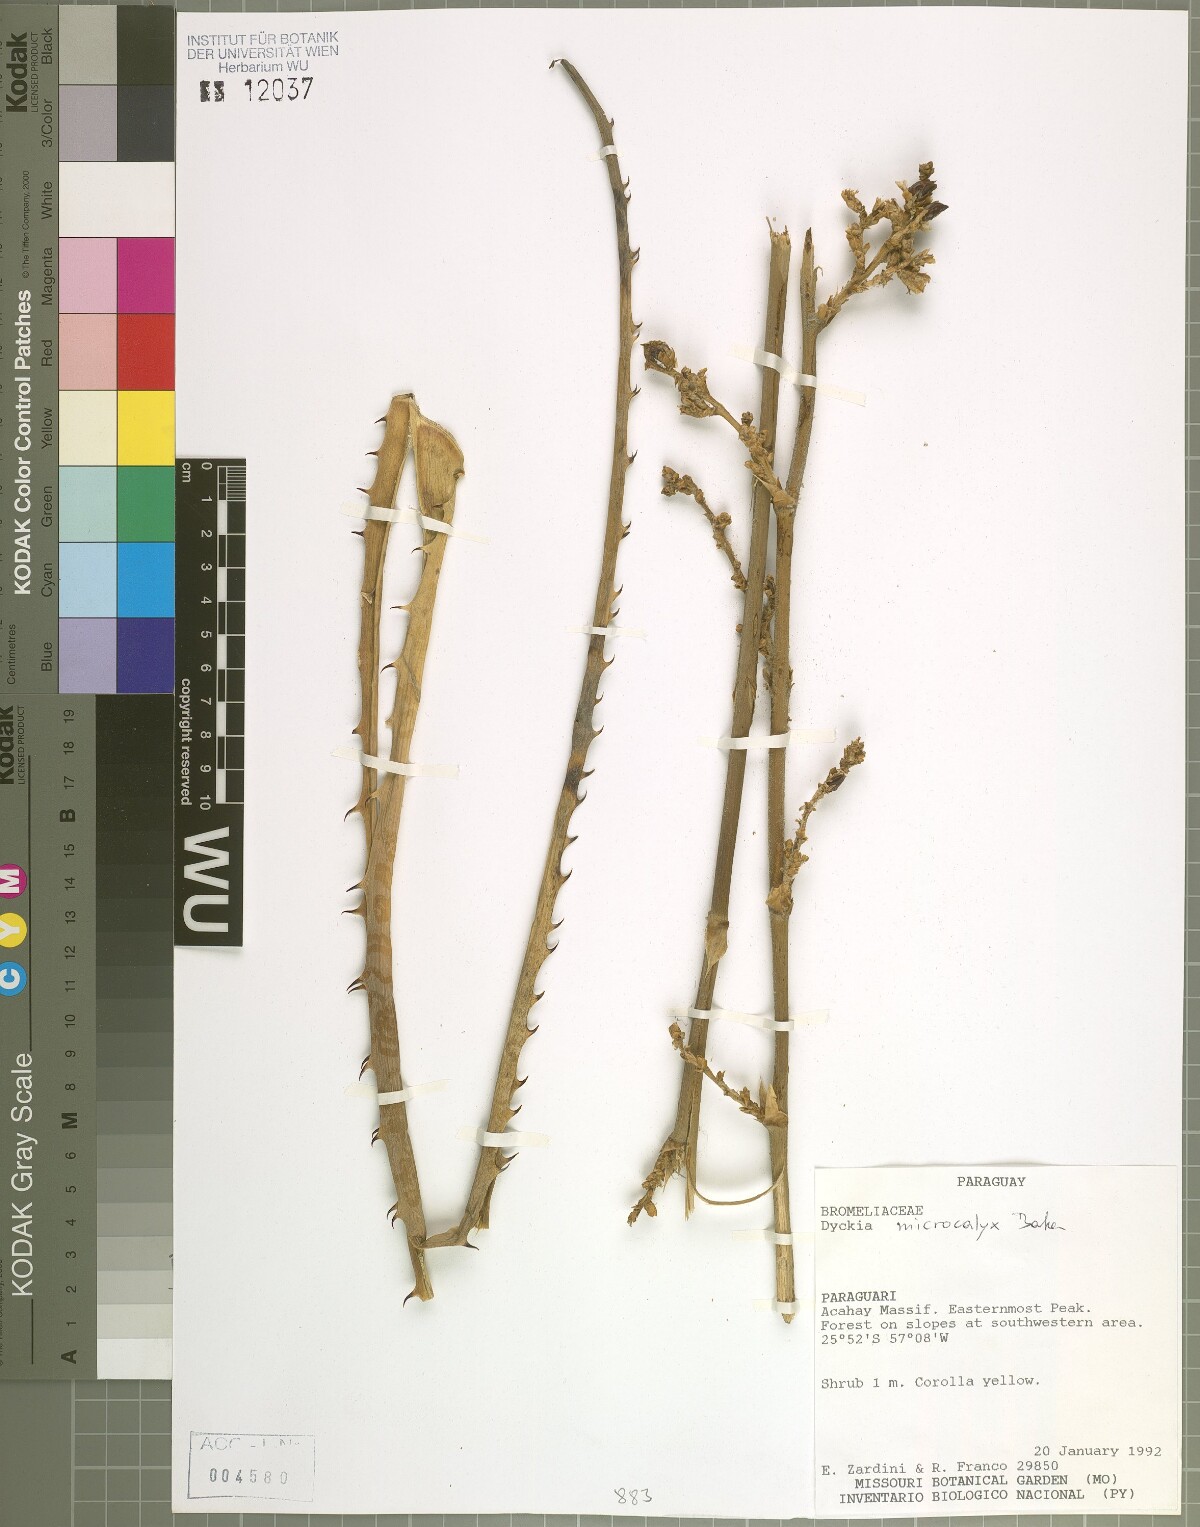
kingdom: Plantae
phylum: Tracheophyta
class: Liliopsida
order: Poales
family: Bromeliaceae
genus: Dyckia
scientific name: Dyckia microcalyx
